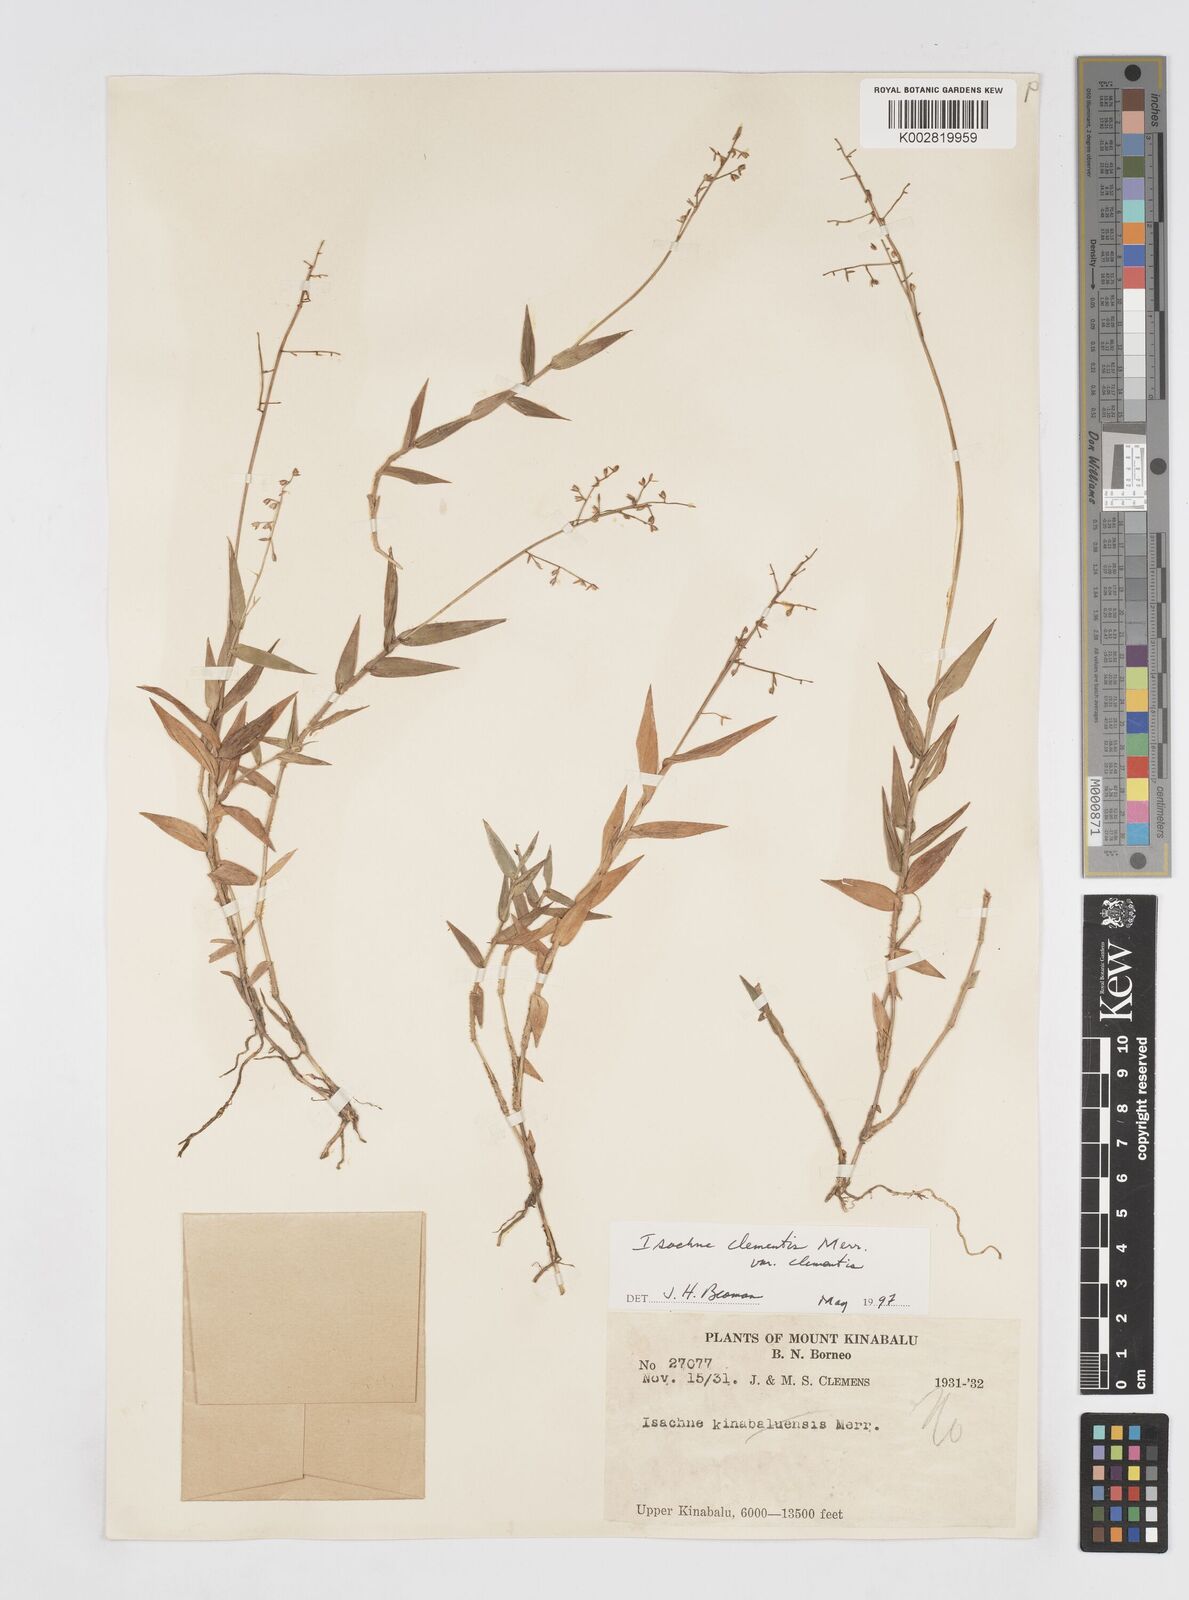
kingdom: Plantae
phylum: Tracheophyta
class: Liliopsida
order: Poales
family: Poaceae
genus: Isachne
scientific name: Isachne clementis
